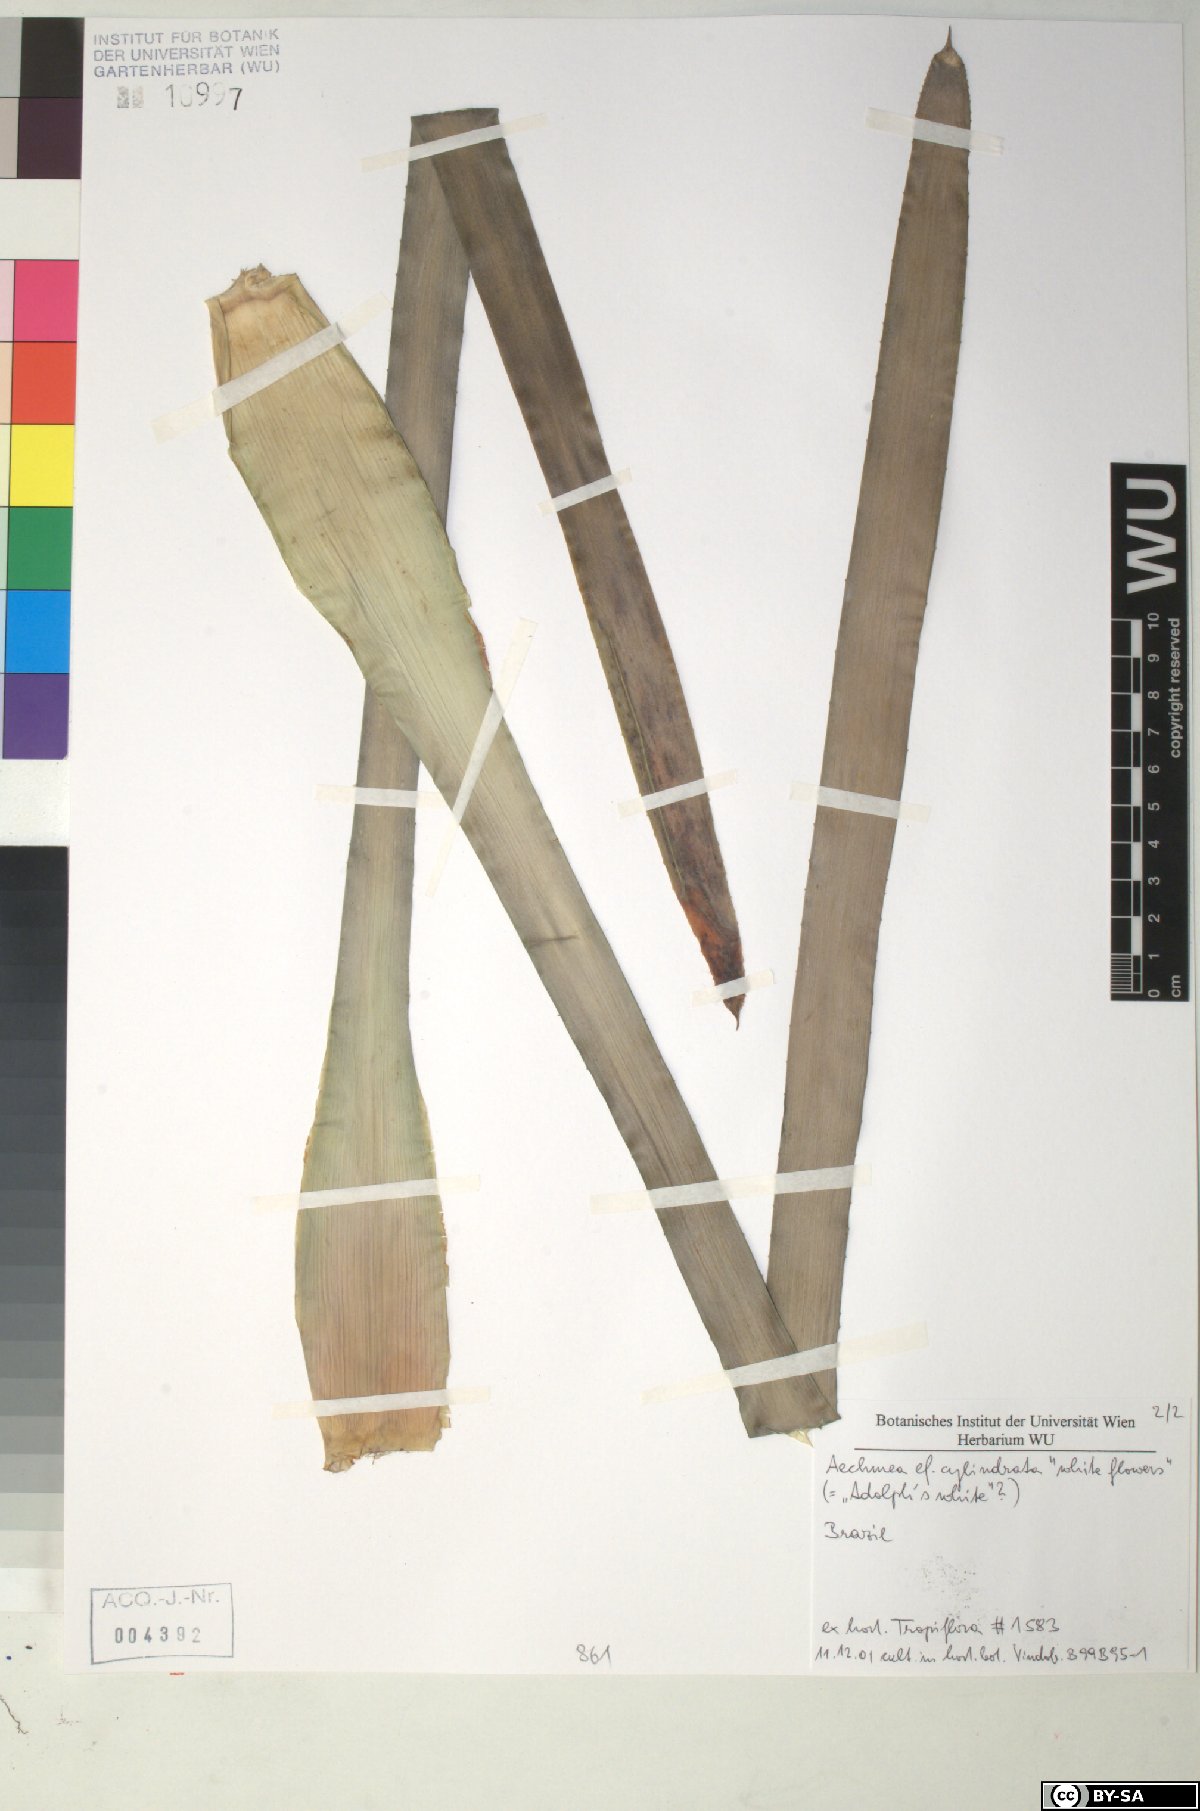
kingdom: Plantae
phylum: Tracheophyta
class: Liliopsida
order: Poales
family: Bromeliaceae
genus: Aechmea
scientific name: Aechmea cylindrata
